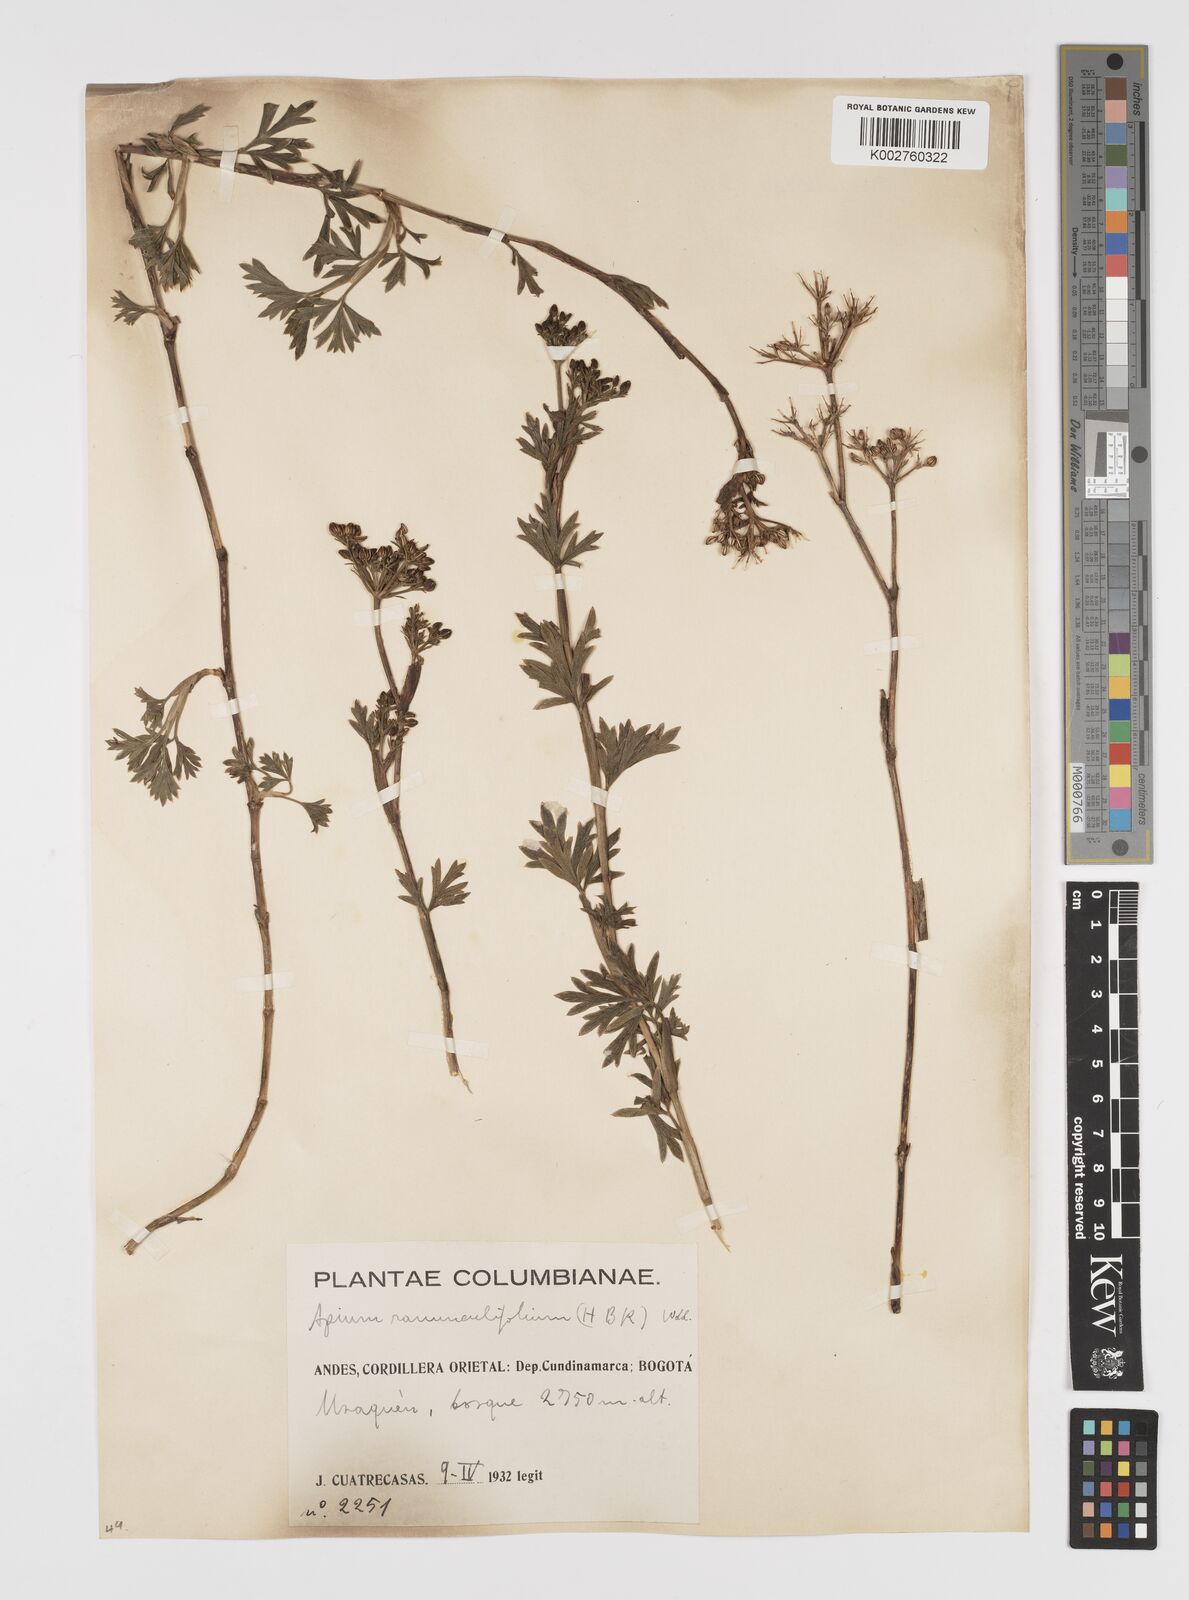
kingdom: Plantae
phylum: Tracheophyta
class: Magnoliopsida
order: Apiales
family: Apiaceae
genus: Niphogeton
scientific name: Niphogeton ternata
